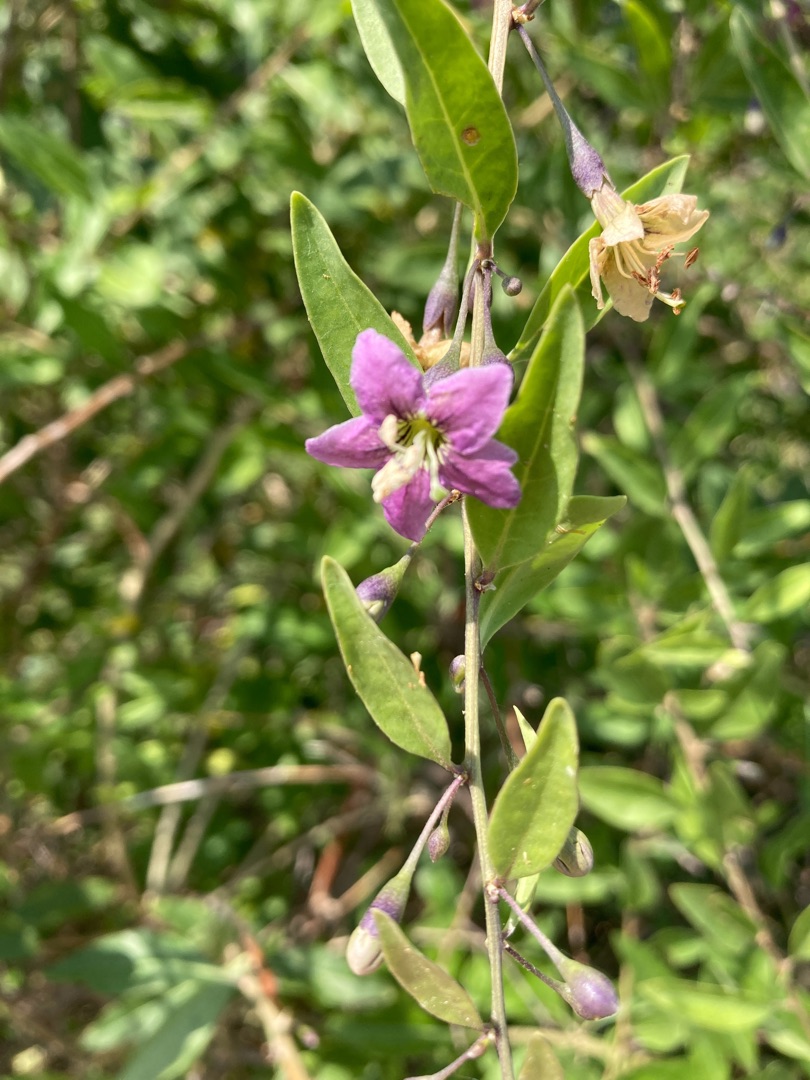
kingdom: Plantae
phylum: Tracheophyta
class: Magnoliopsida
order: Solanales
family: Solanaceae
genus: Lycium
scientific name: Lycium barbarum
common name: Bukketorn
